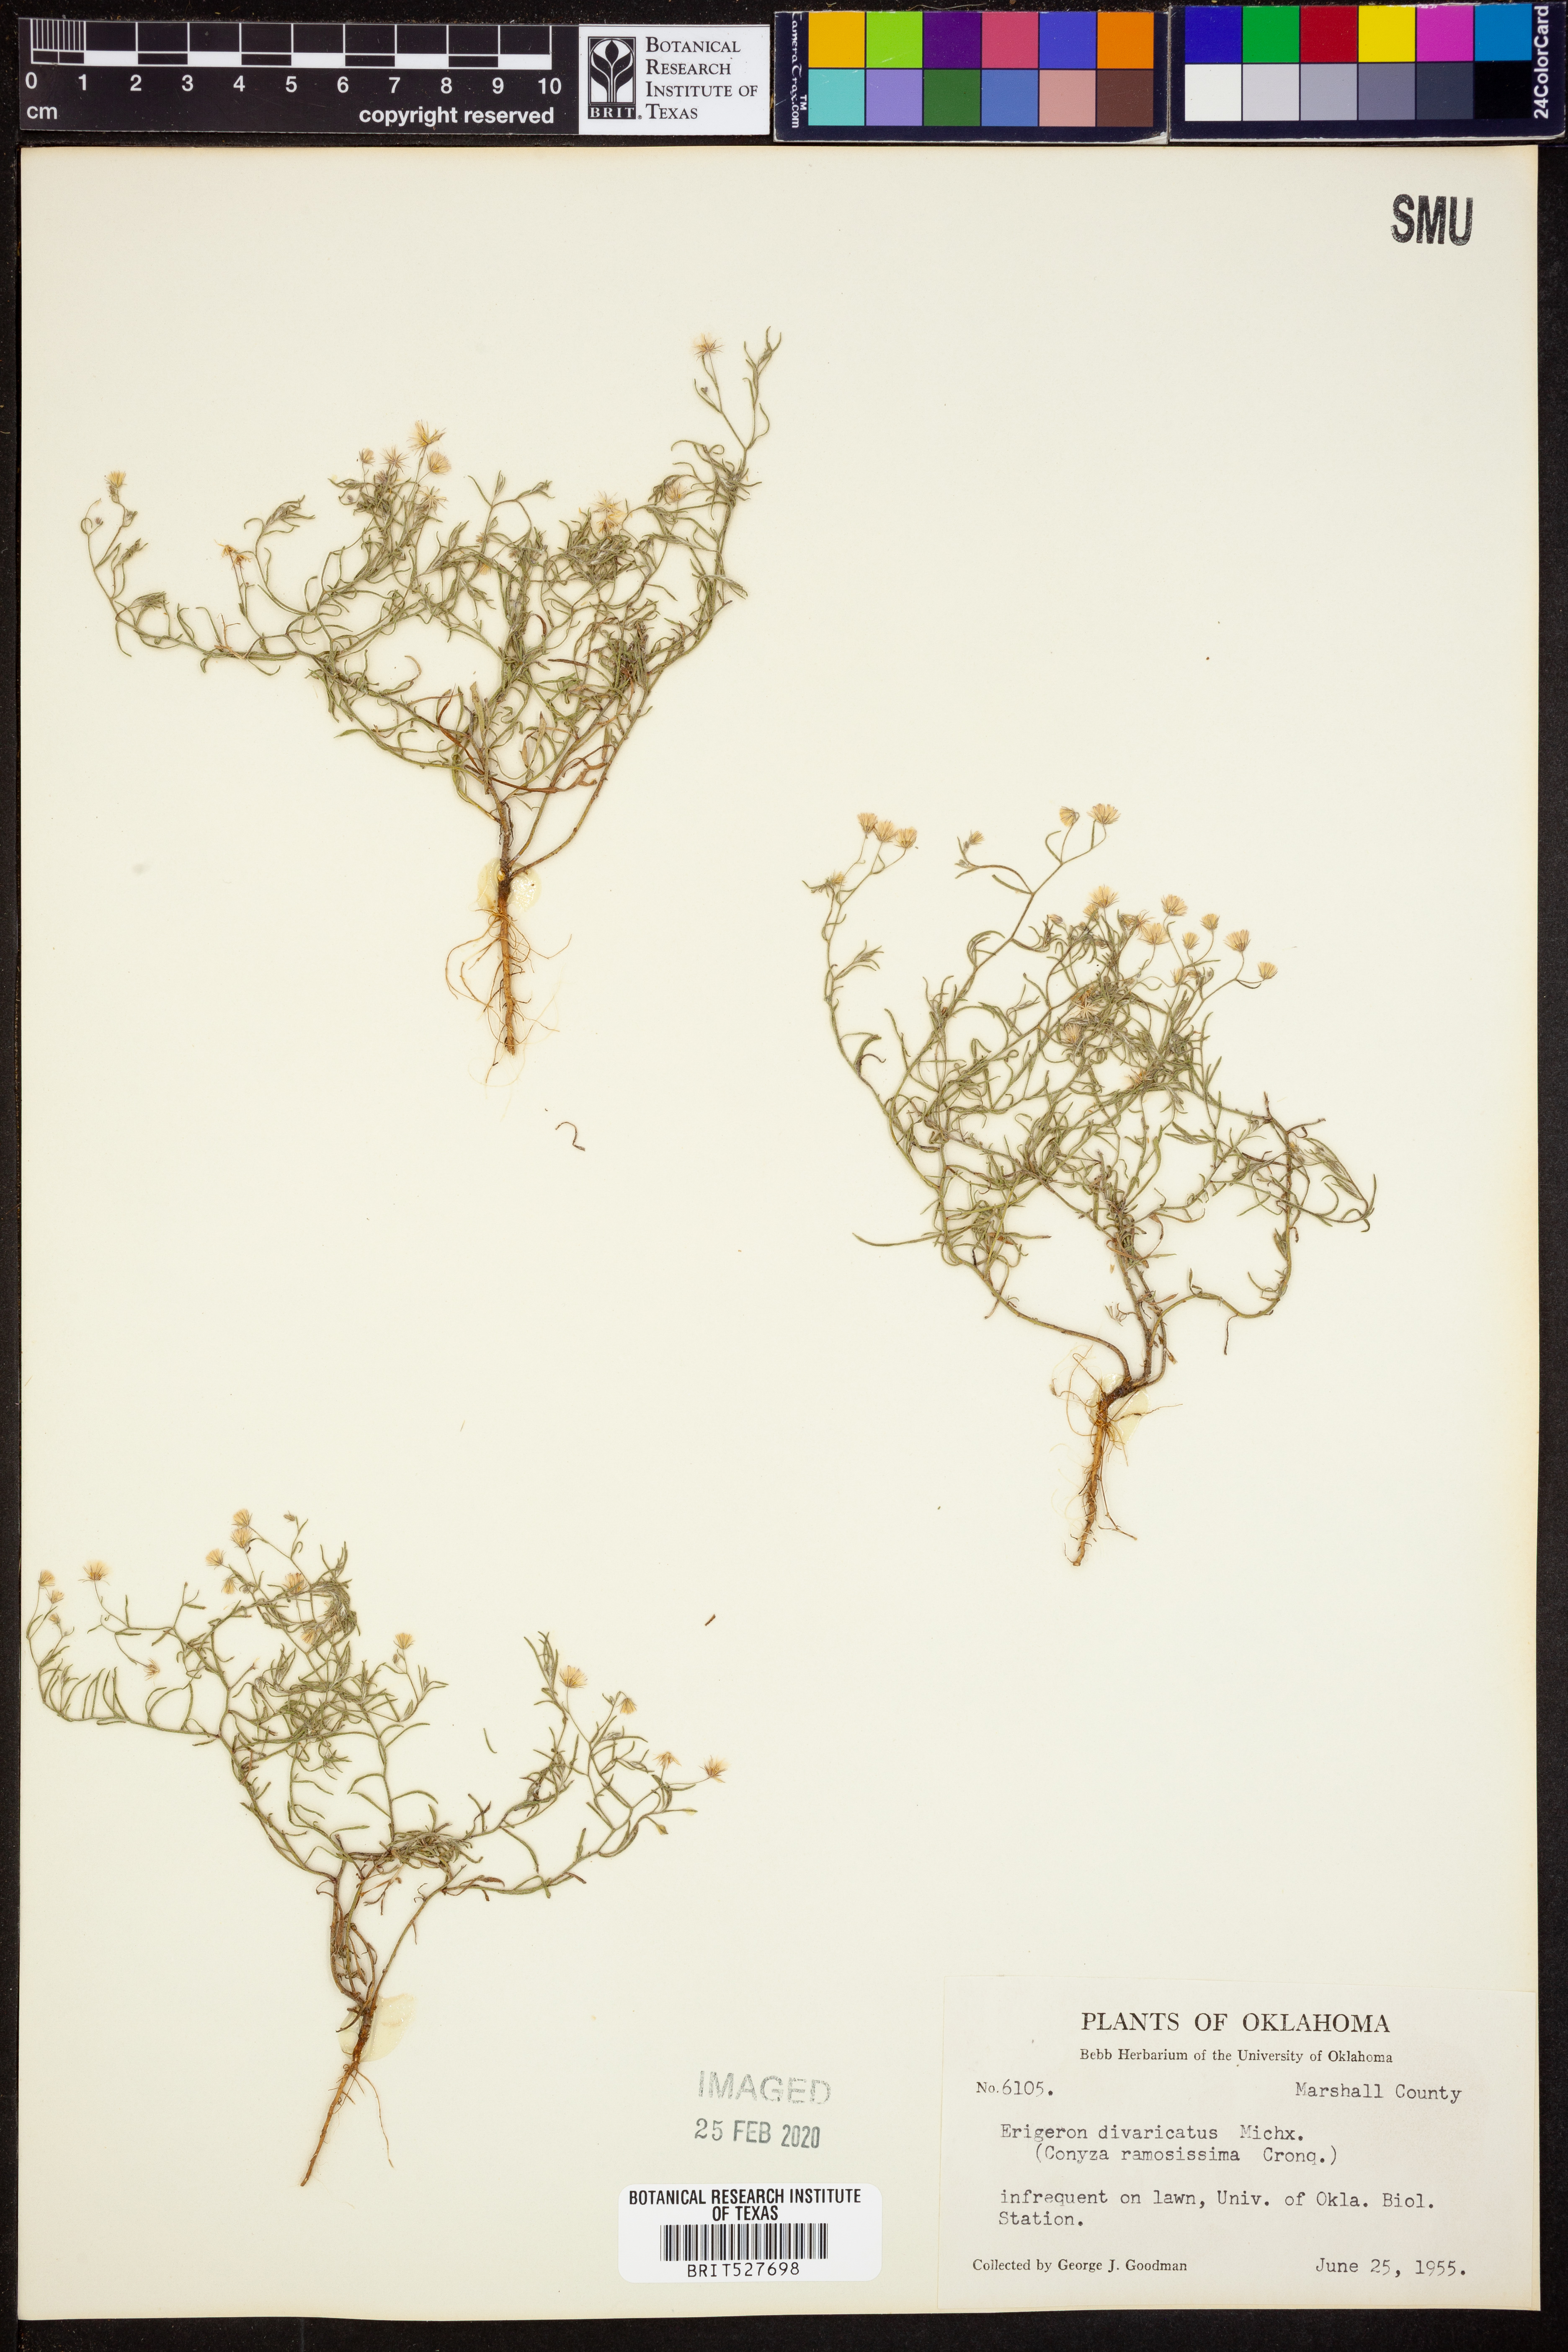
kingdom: Plantae
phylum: Tracheophyta
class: Magnoliopsida
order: Asterales
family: Asteraceae
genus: Erigeron
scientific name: Erigeron divaricatus
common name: Dwarf conyza
